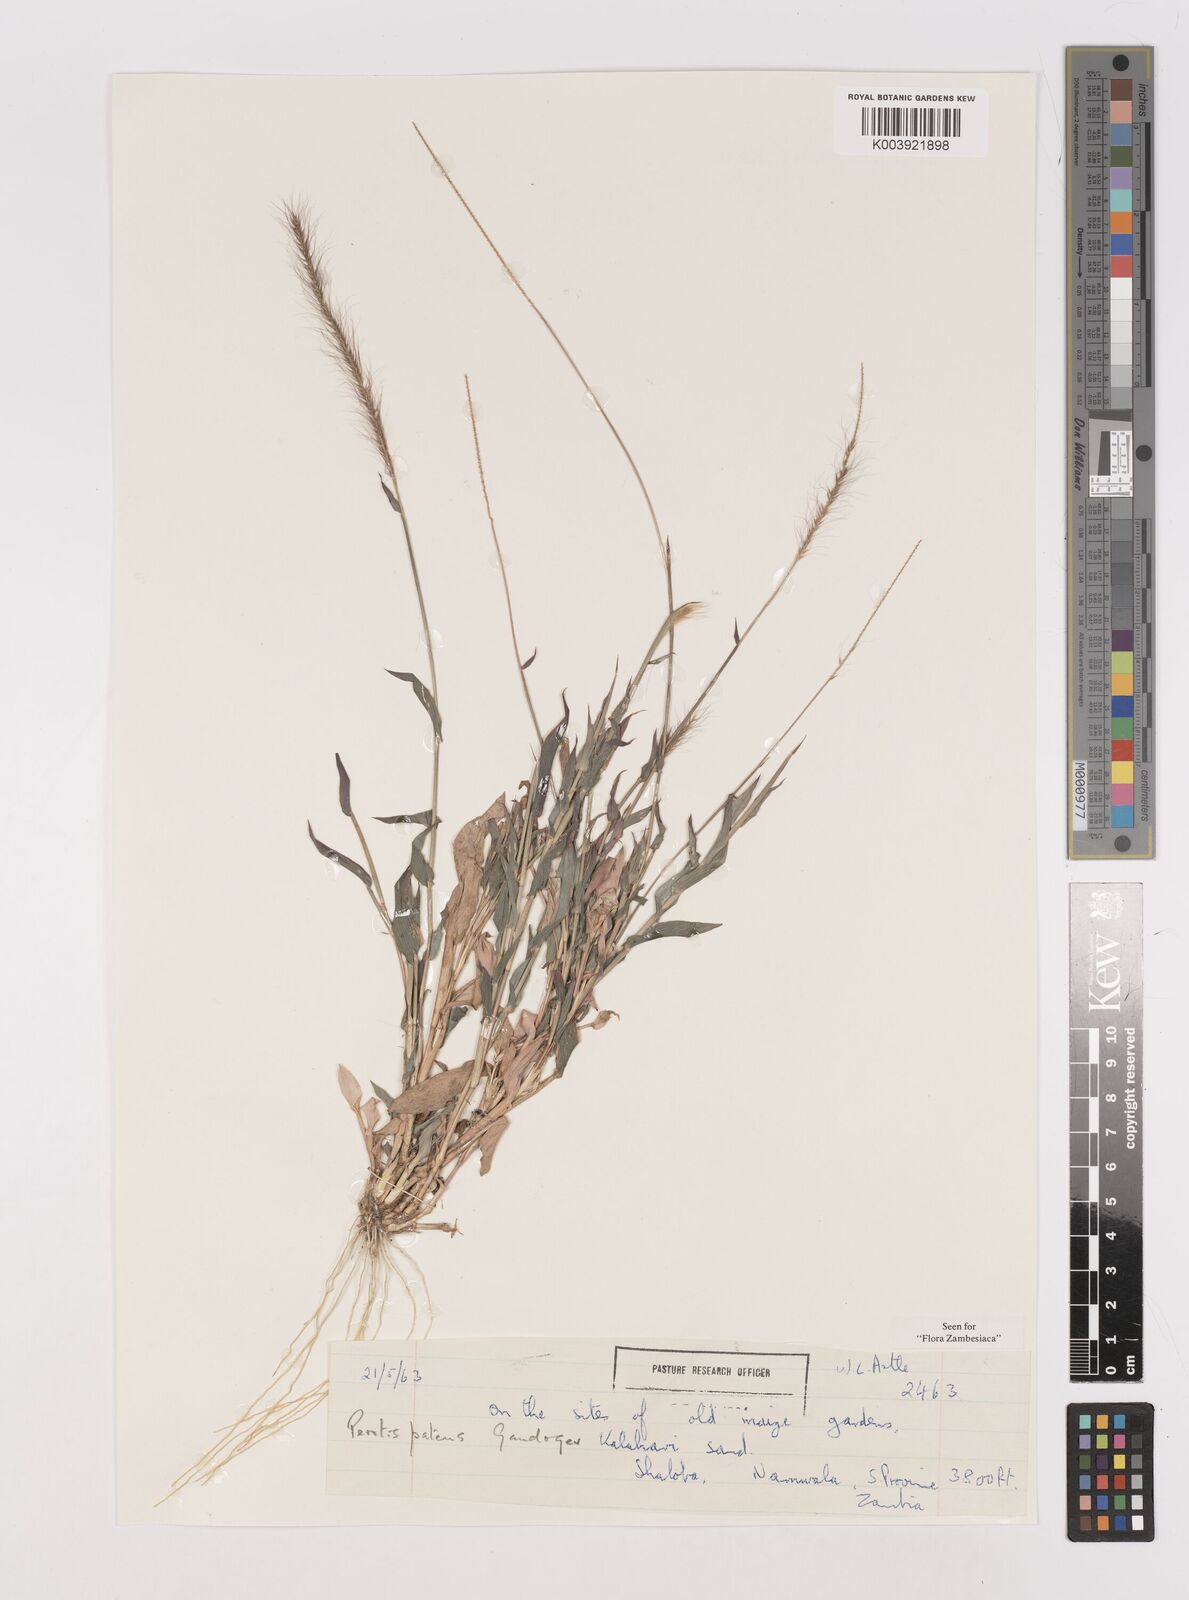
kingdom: Plantae
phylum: Tracheophyta
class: Liliopsida
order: Poales
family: Poaceae
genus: Perotis
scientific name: Perotis patens
